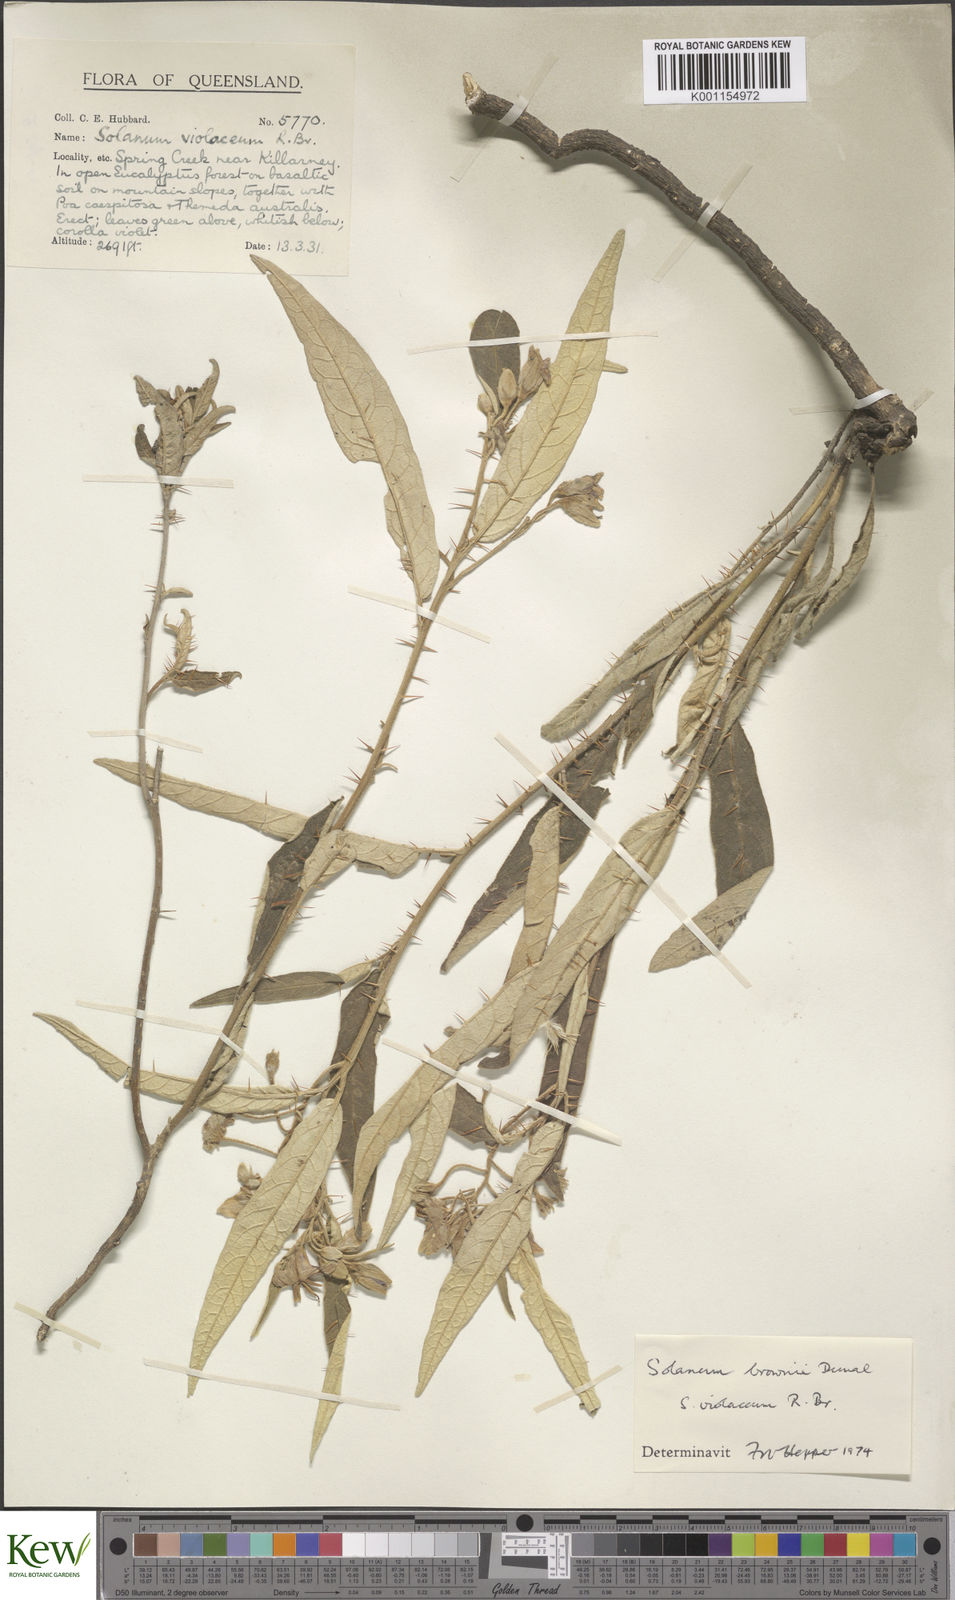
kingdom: Plantae
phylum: Tracheophyta
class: Magnoliopsida
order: Solanales
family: Solanaceae
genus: Solanum
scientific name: Solanum brownii
